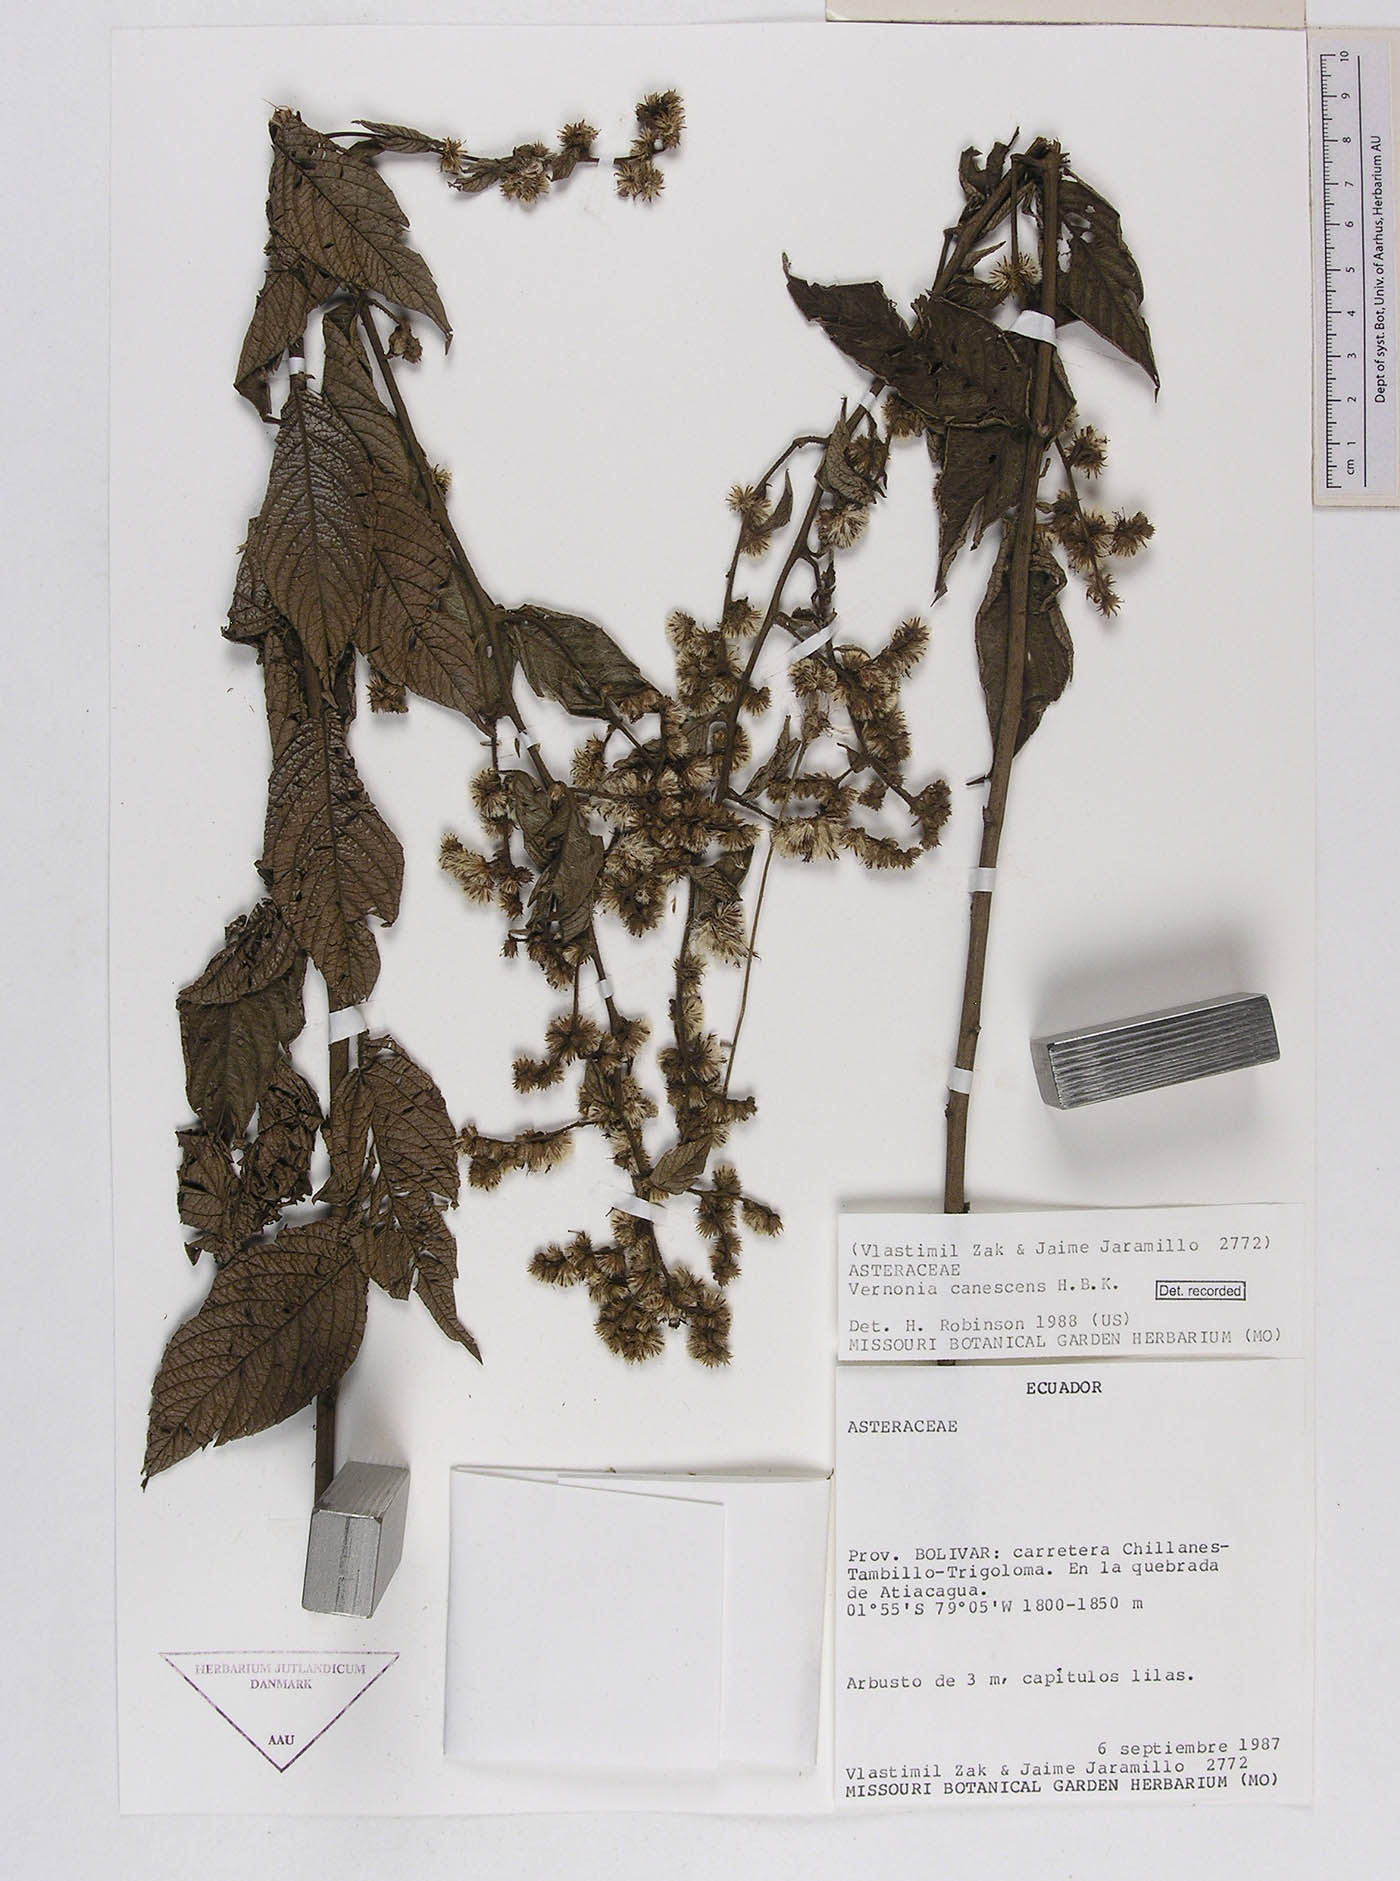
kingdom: Plantae
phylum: Tracheophyta
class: Magnoliopsida
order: Asterales
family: Asteraceae
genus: Lepidaploa
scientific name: Lepidaploa canescens
